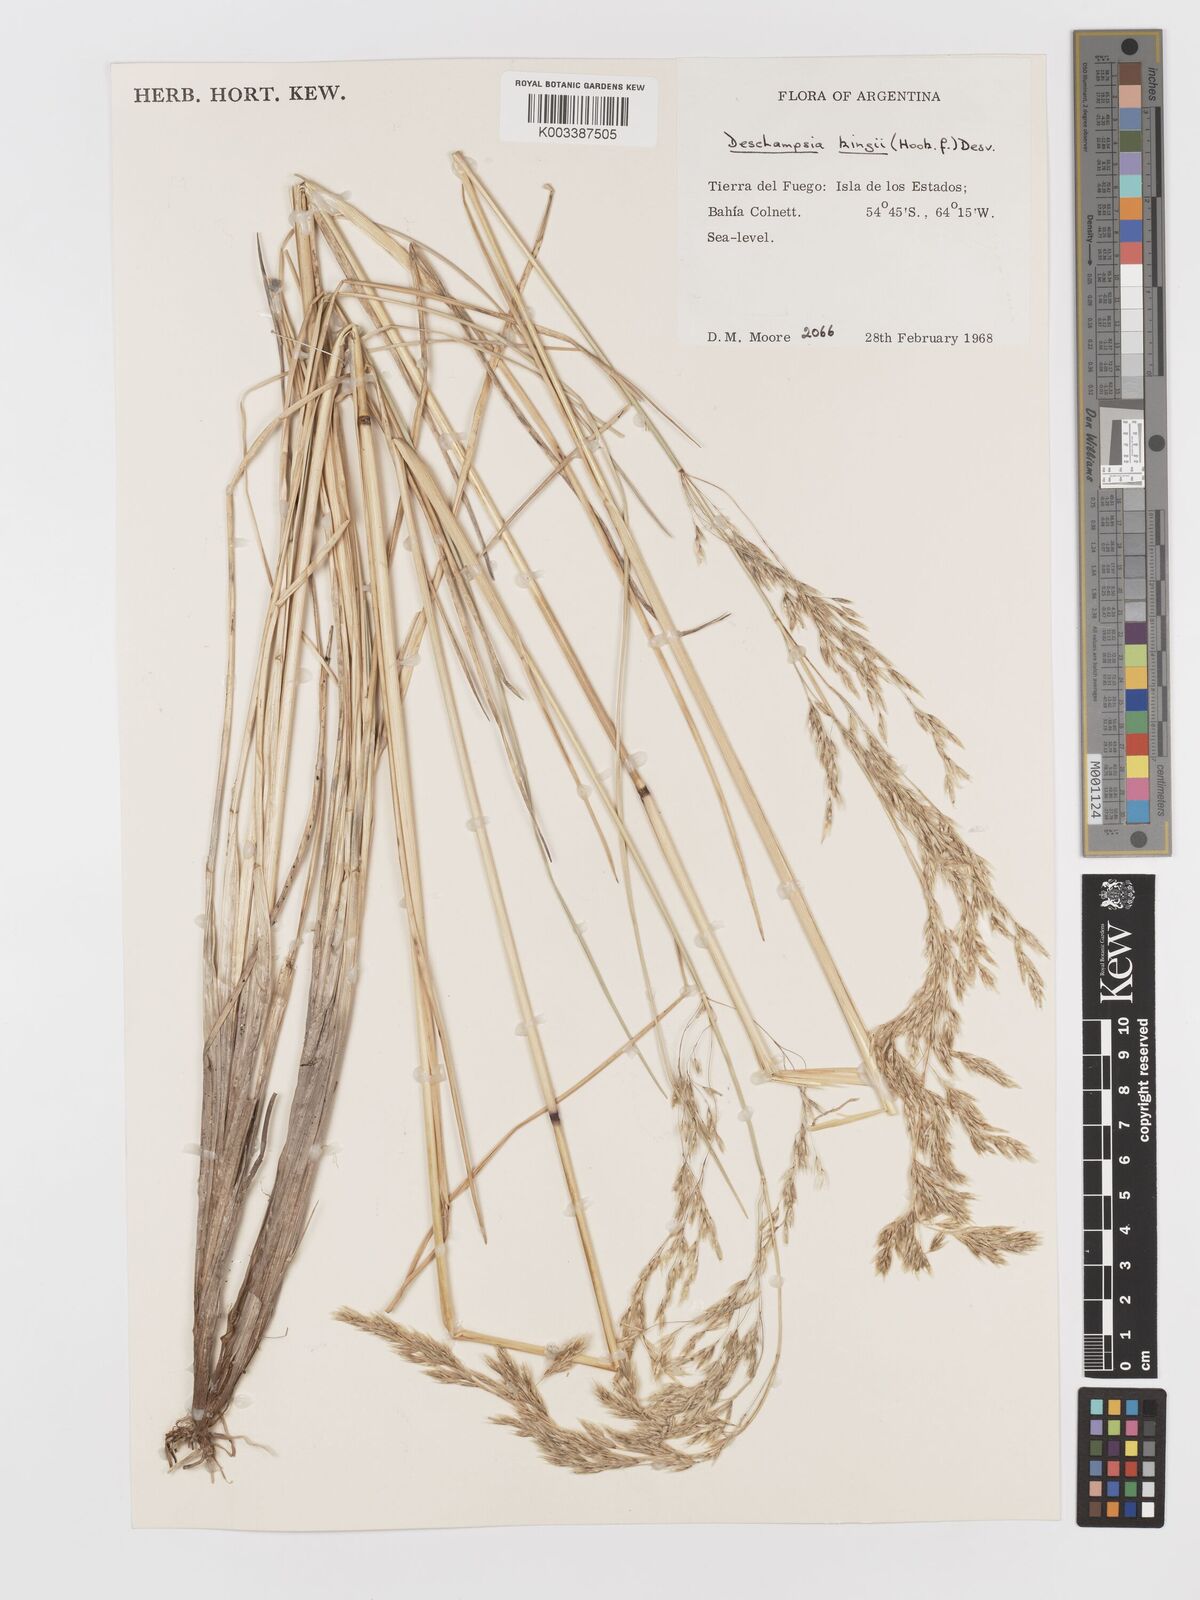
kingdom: Plantae
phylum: Tracheophyta
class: Liliopsida
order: Poales
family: Poaceae
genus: Deschampsia
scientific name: Deschampsia kingii
